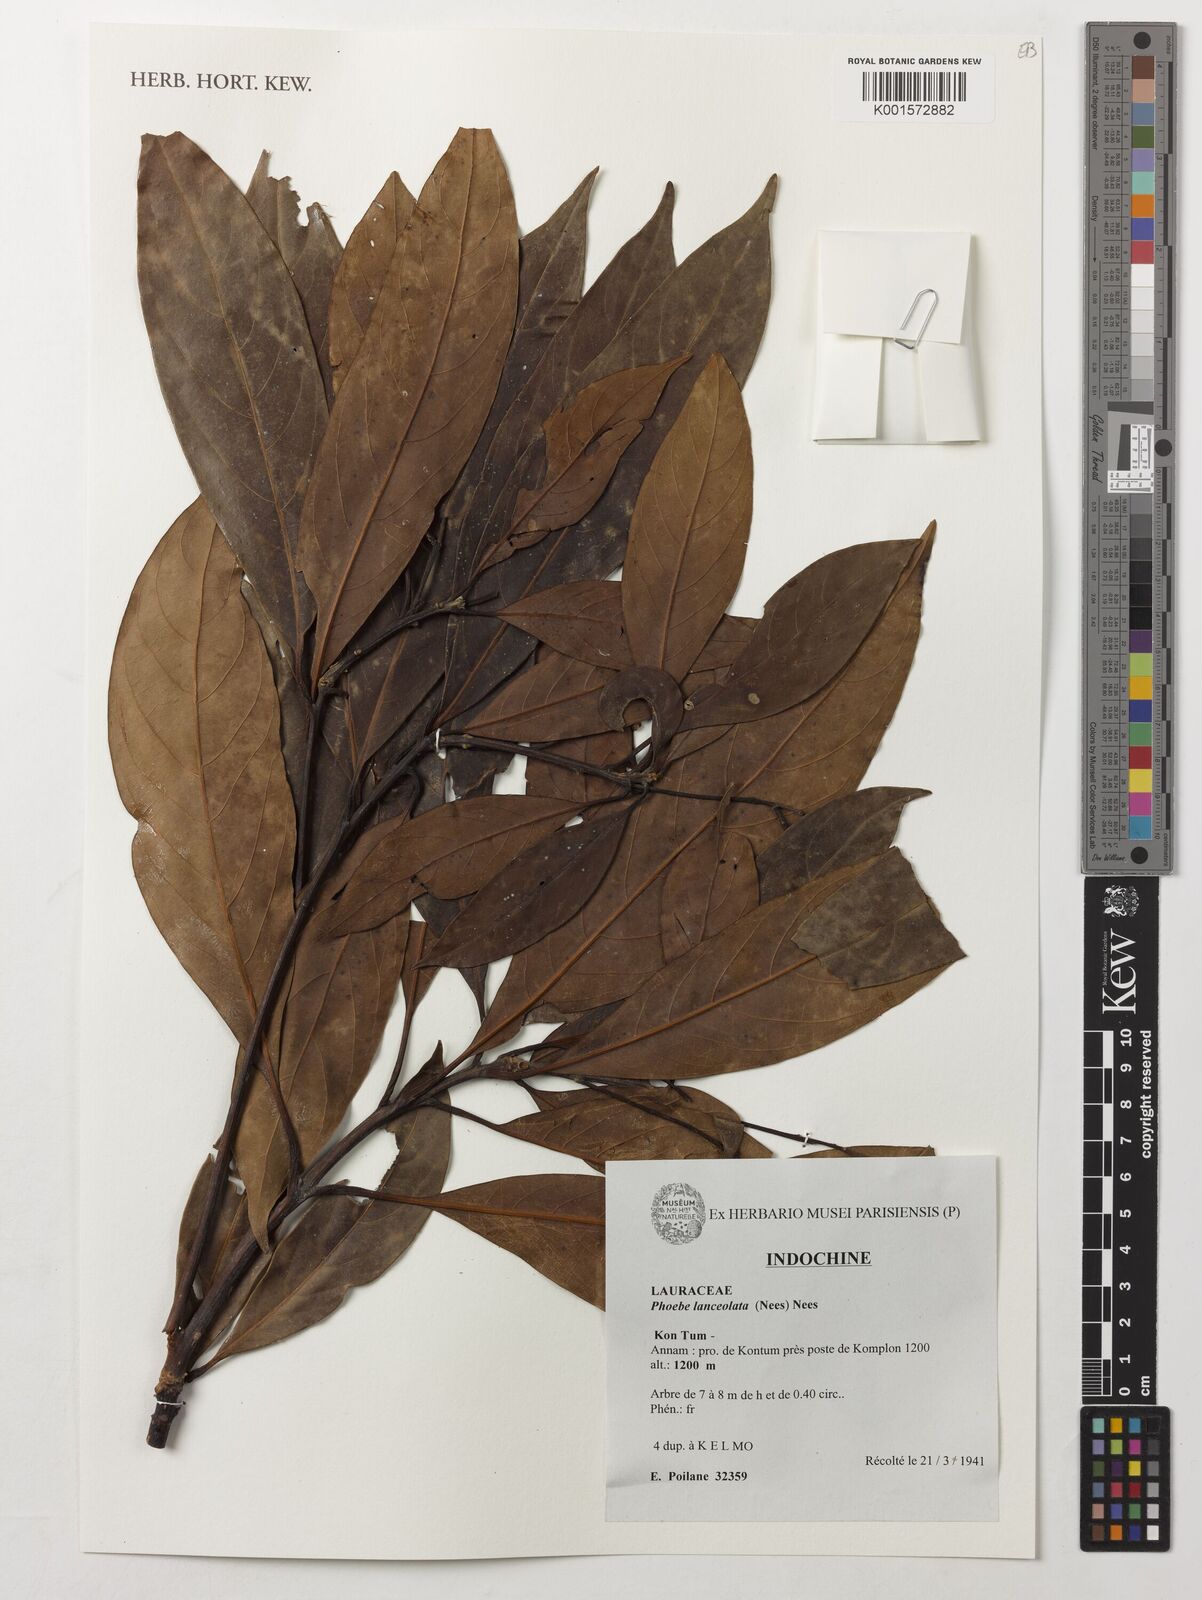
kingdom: Plantae
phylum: Tracheophyta
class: Magnoliopsida
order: Laurales
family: Lauraceae
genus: Phoebe
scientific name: Phoebe lanceolata
